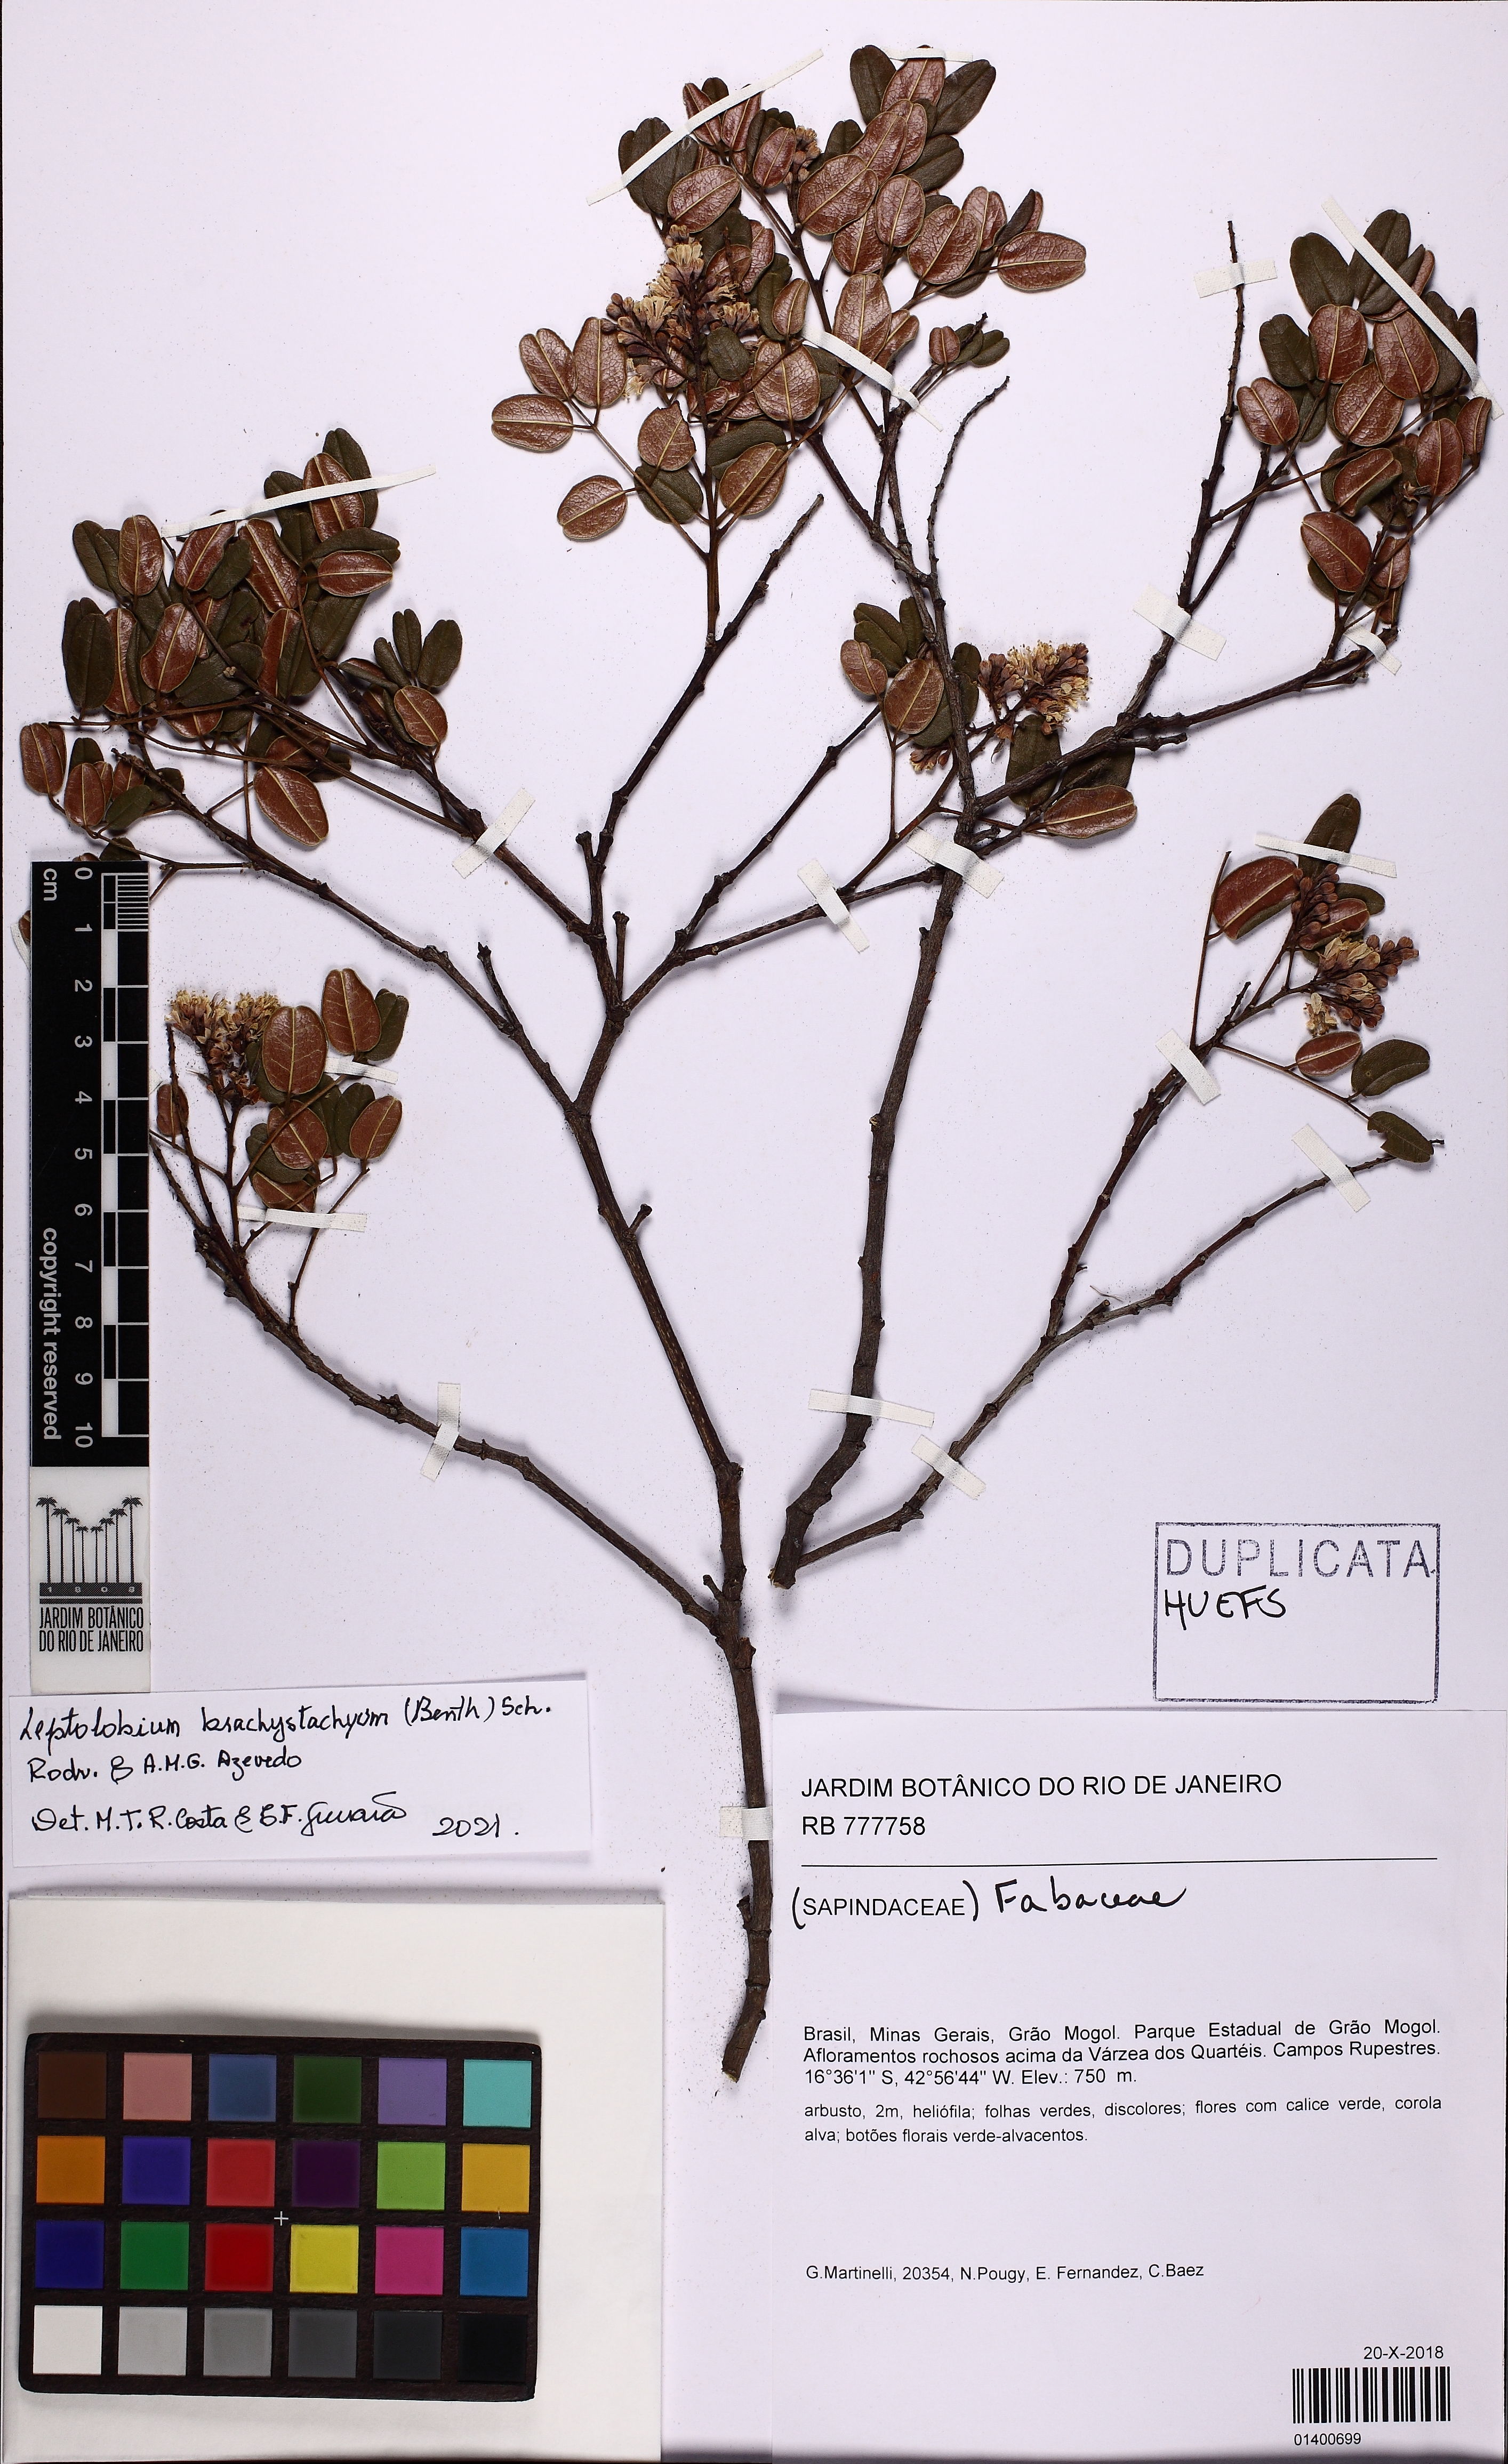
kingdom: Plantae
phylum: Tracheophyta
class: Magnoliopsida
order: Fabales
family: Fabaceae
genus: Leptolobium
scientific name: Leptolobium brachystachyum
